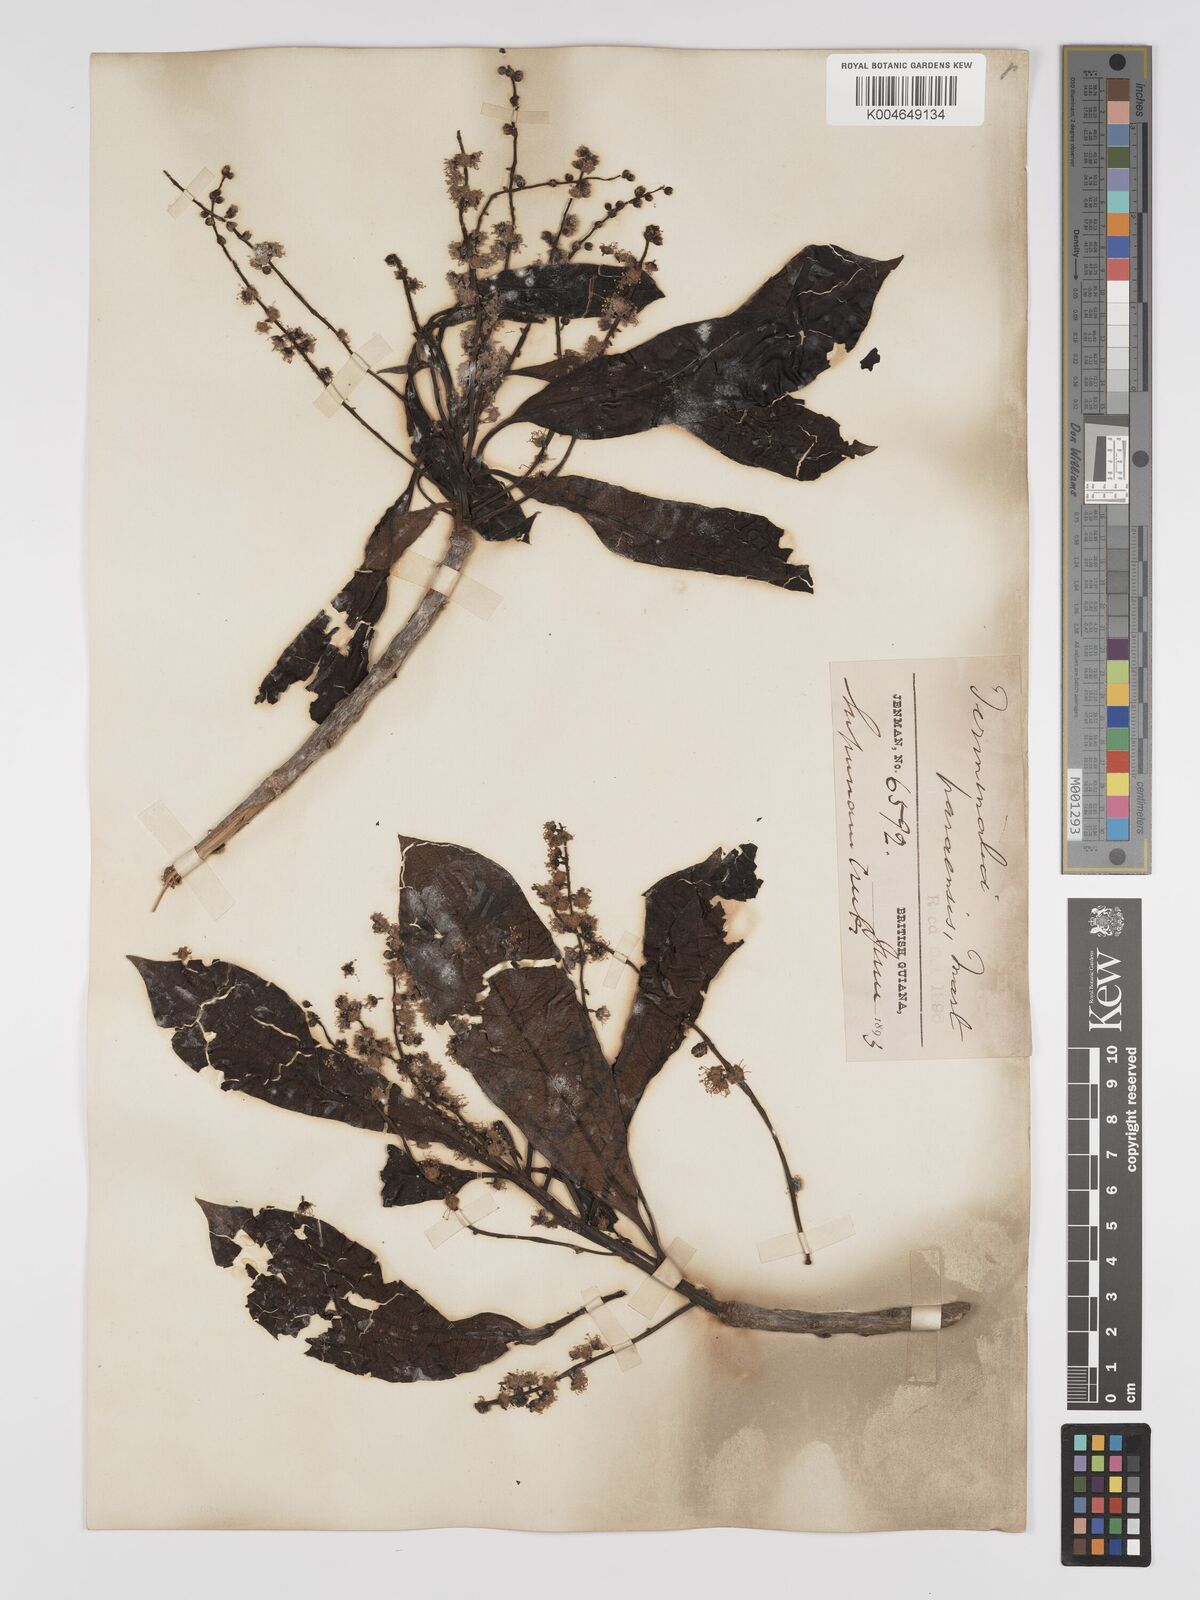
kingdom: Plantae
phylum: Tracheophyta
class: Magnoliopsida
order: Myrtales
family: Combretaceae
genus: Terminalia
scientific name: Terminalia dichotoma
